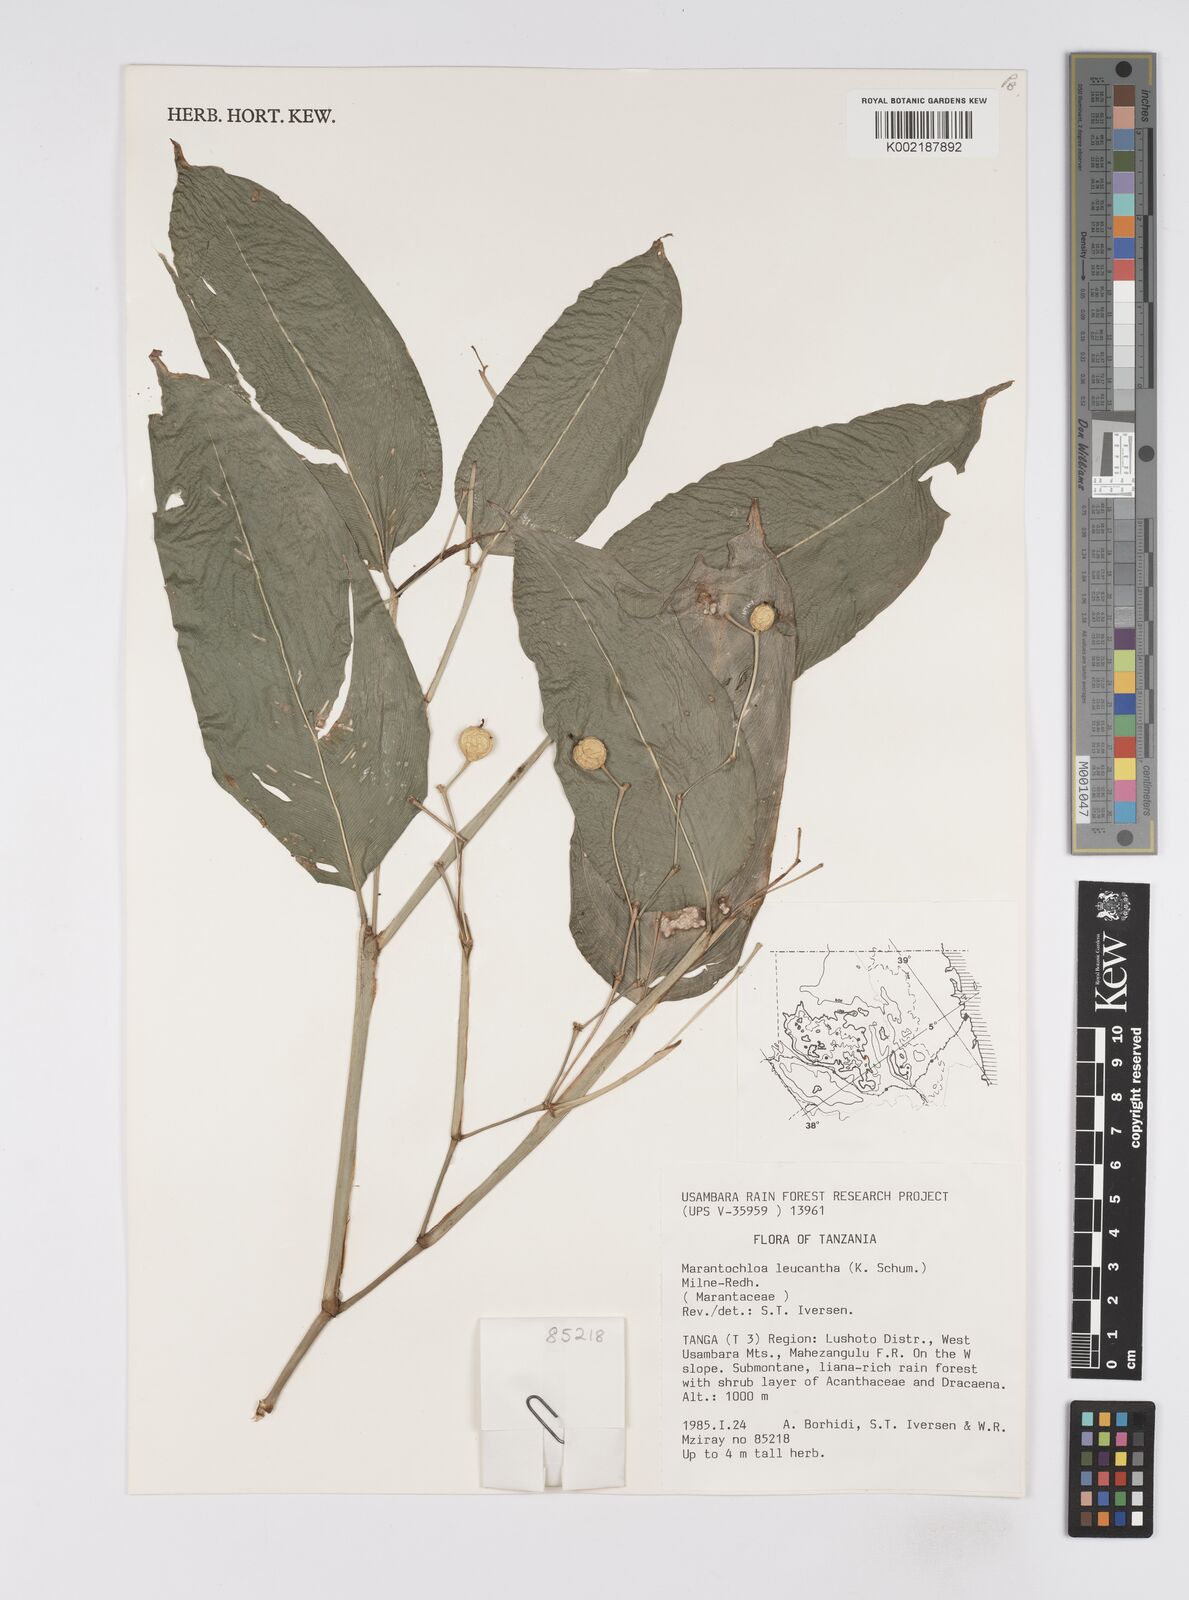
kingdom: Plantae
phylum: Tracheophyta
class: Liliopsida
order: Zingiberales
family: Marantaceae
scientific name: Marantaceae
